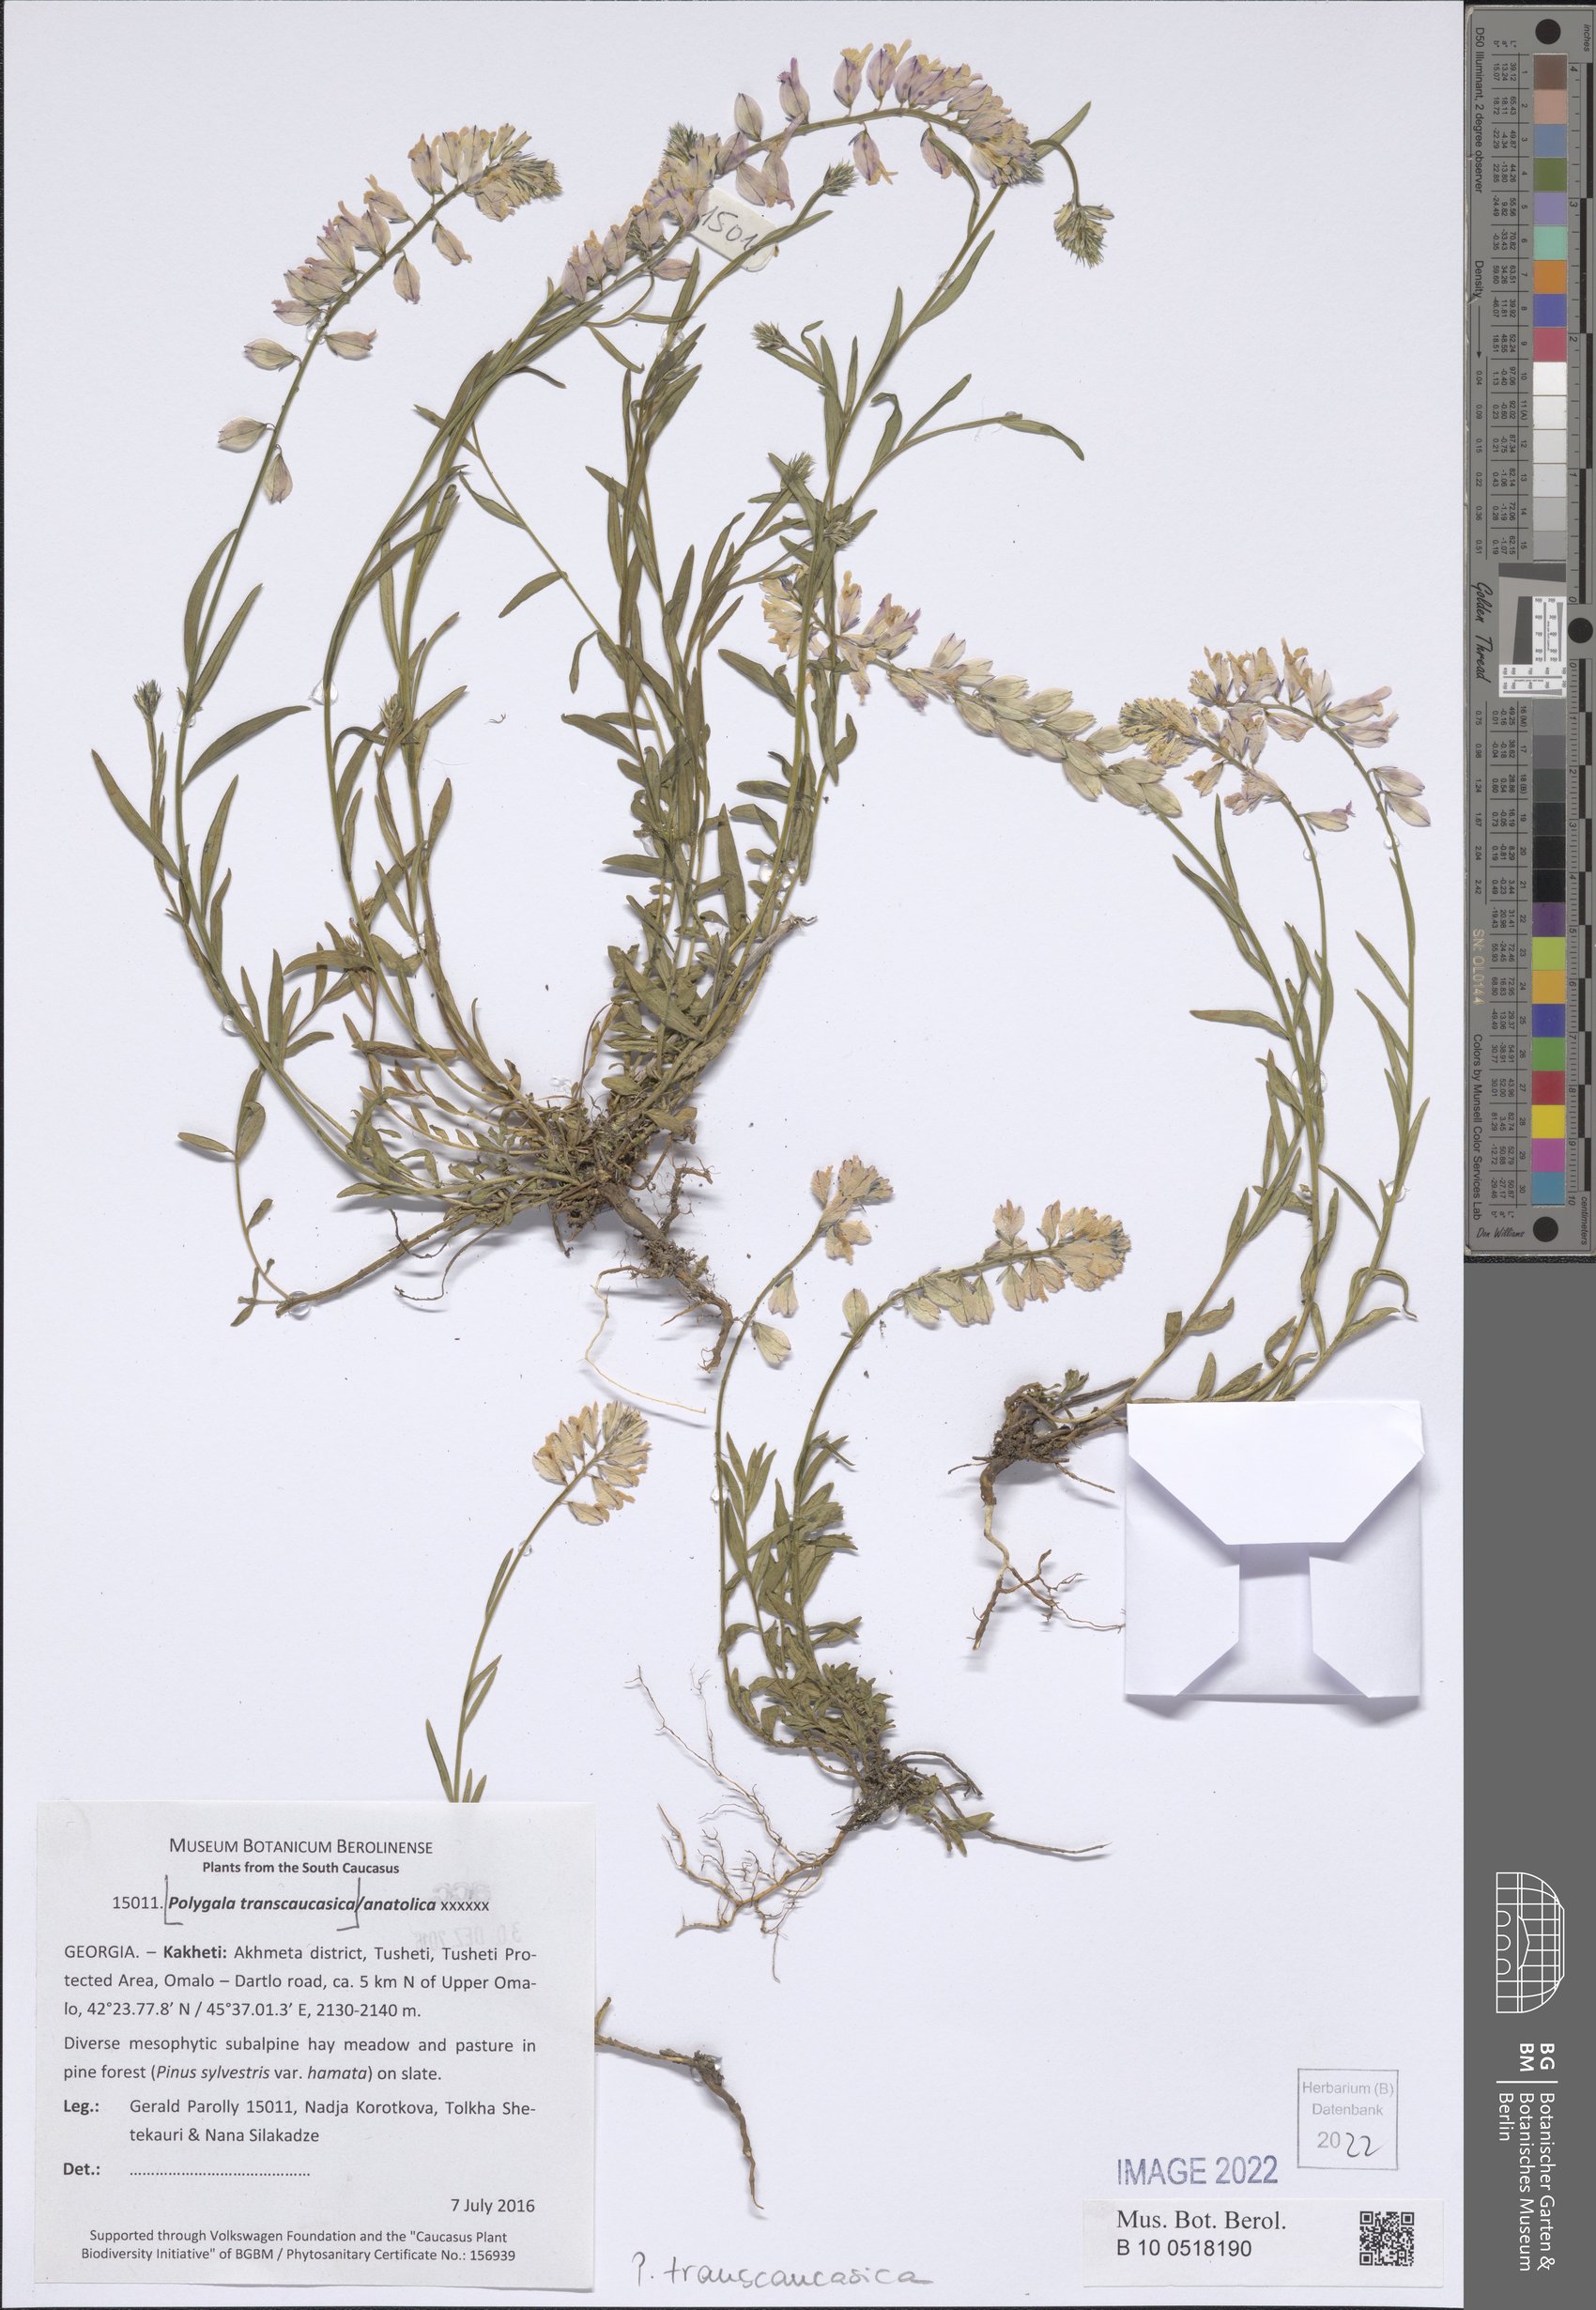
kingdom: Plantae
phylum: Tracheophyta
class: Magnoliopsida
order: Fabales
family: Polygalaceae
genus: Polygala
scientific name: Polygala transcaucasica
